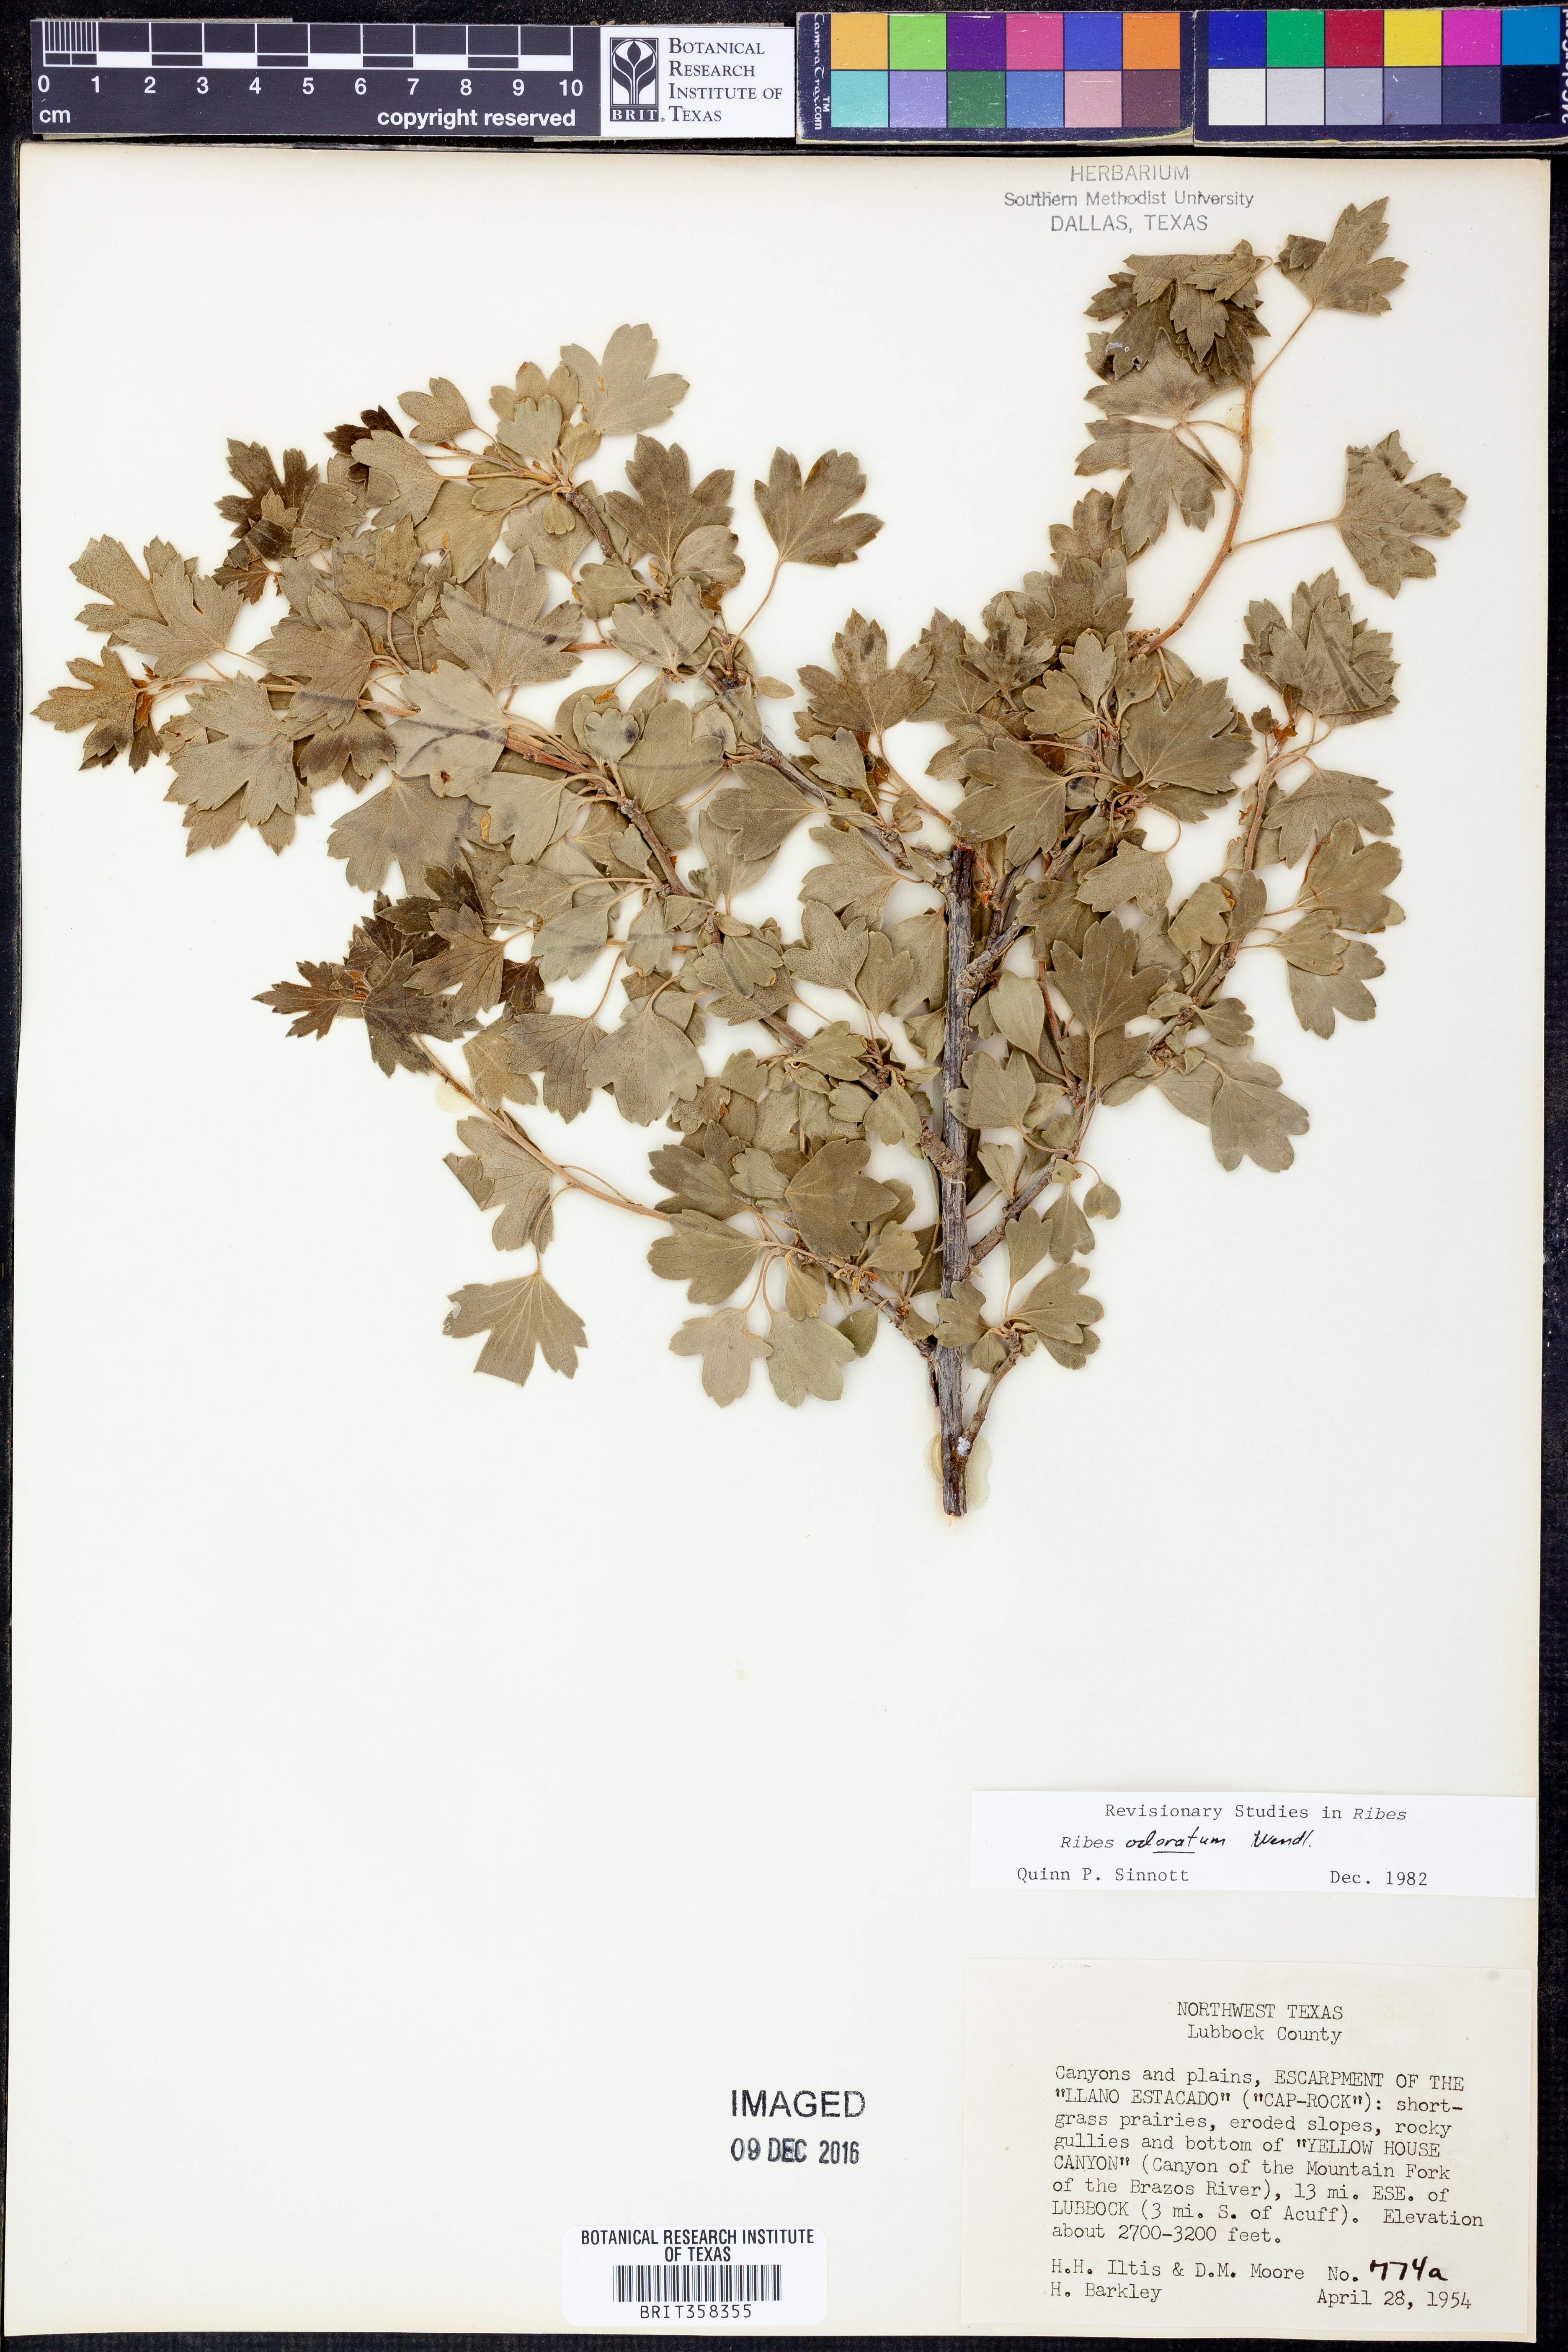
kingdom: Plantae
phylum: Tracheophyta
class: Magnoliopsida
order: Saxifragales
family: Grossulariaceae
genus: Ribes
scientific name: Ribes aureum
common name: Golden currant
